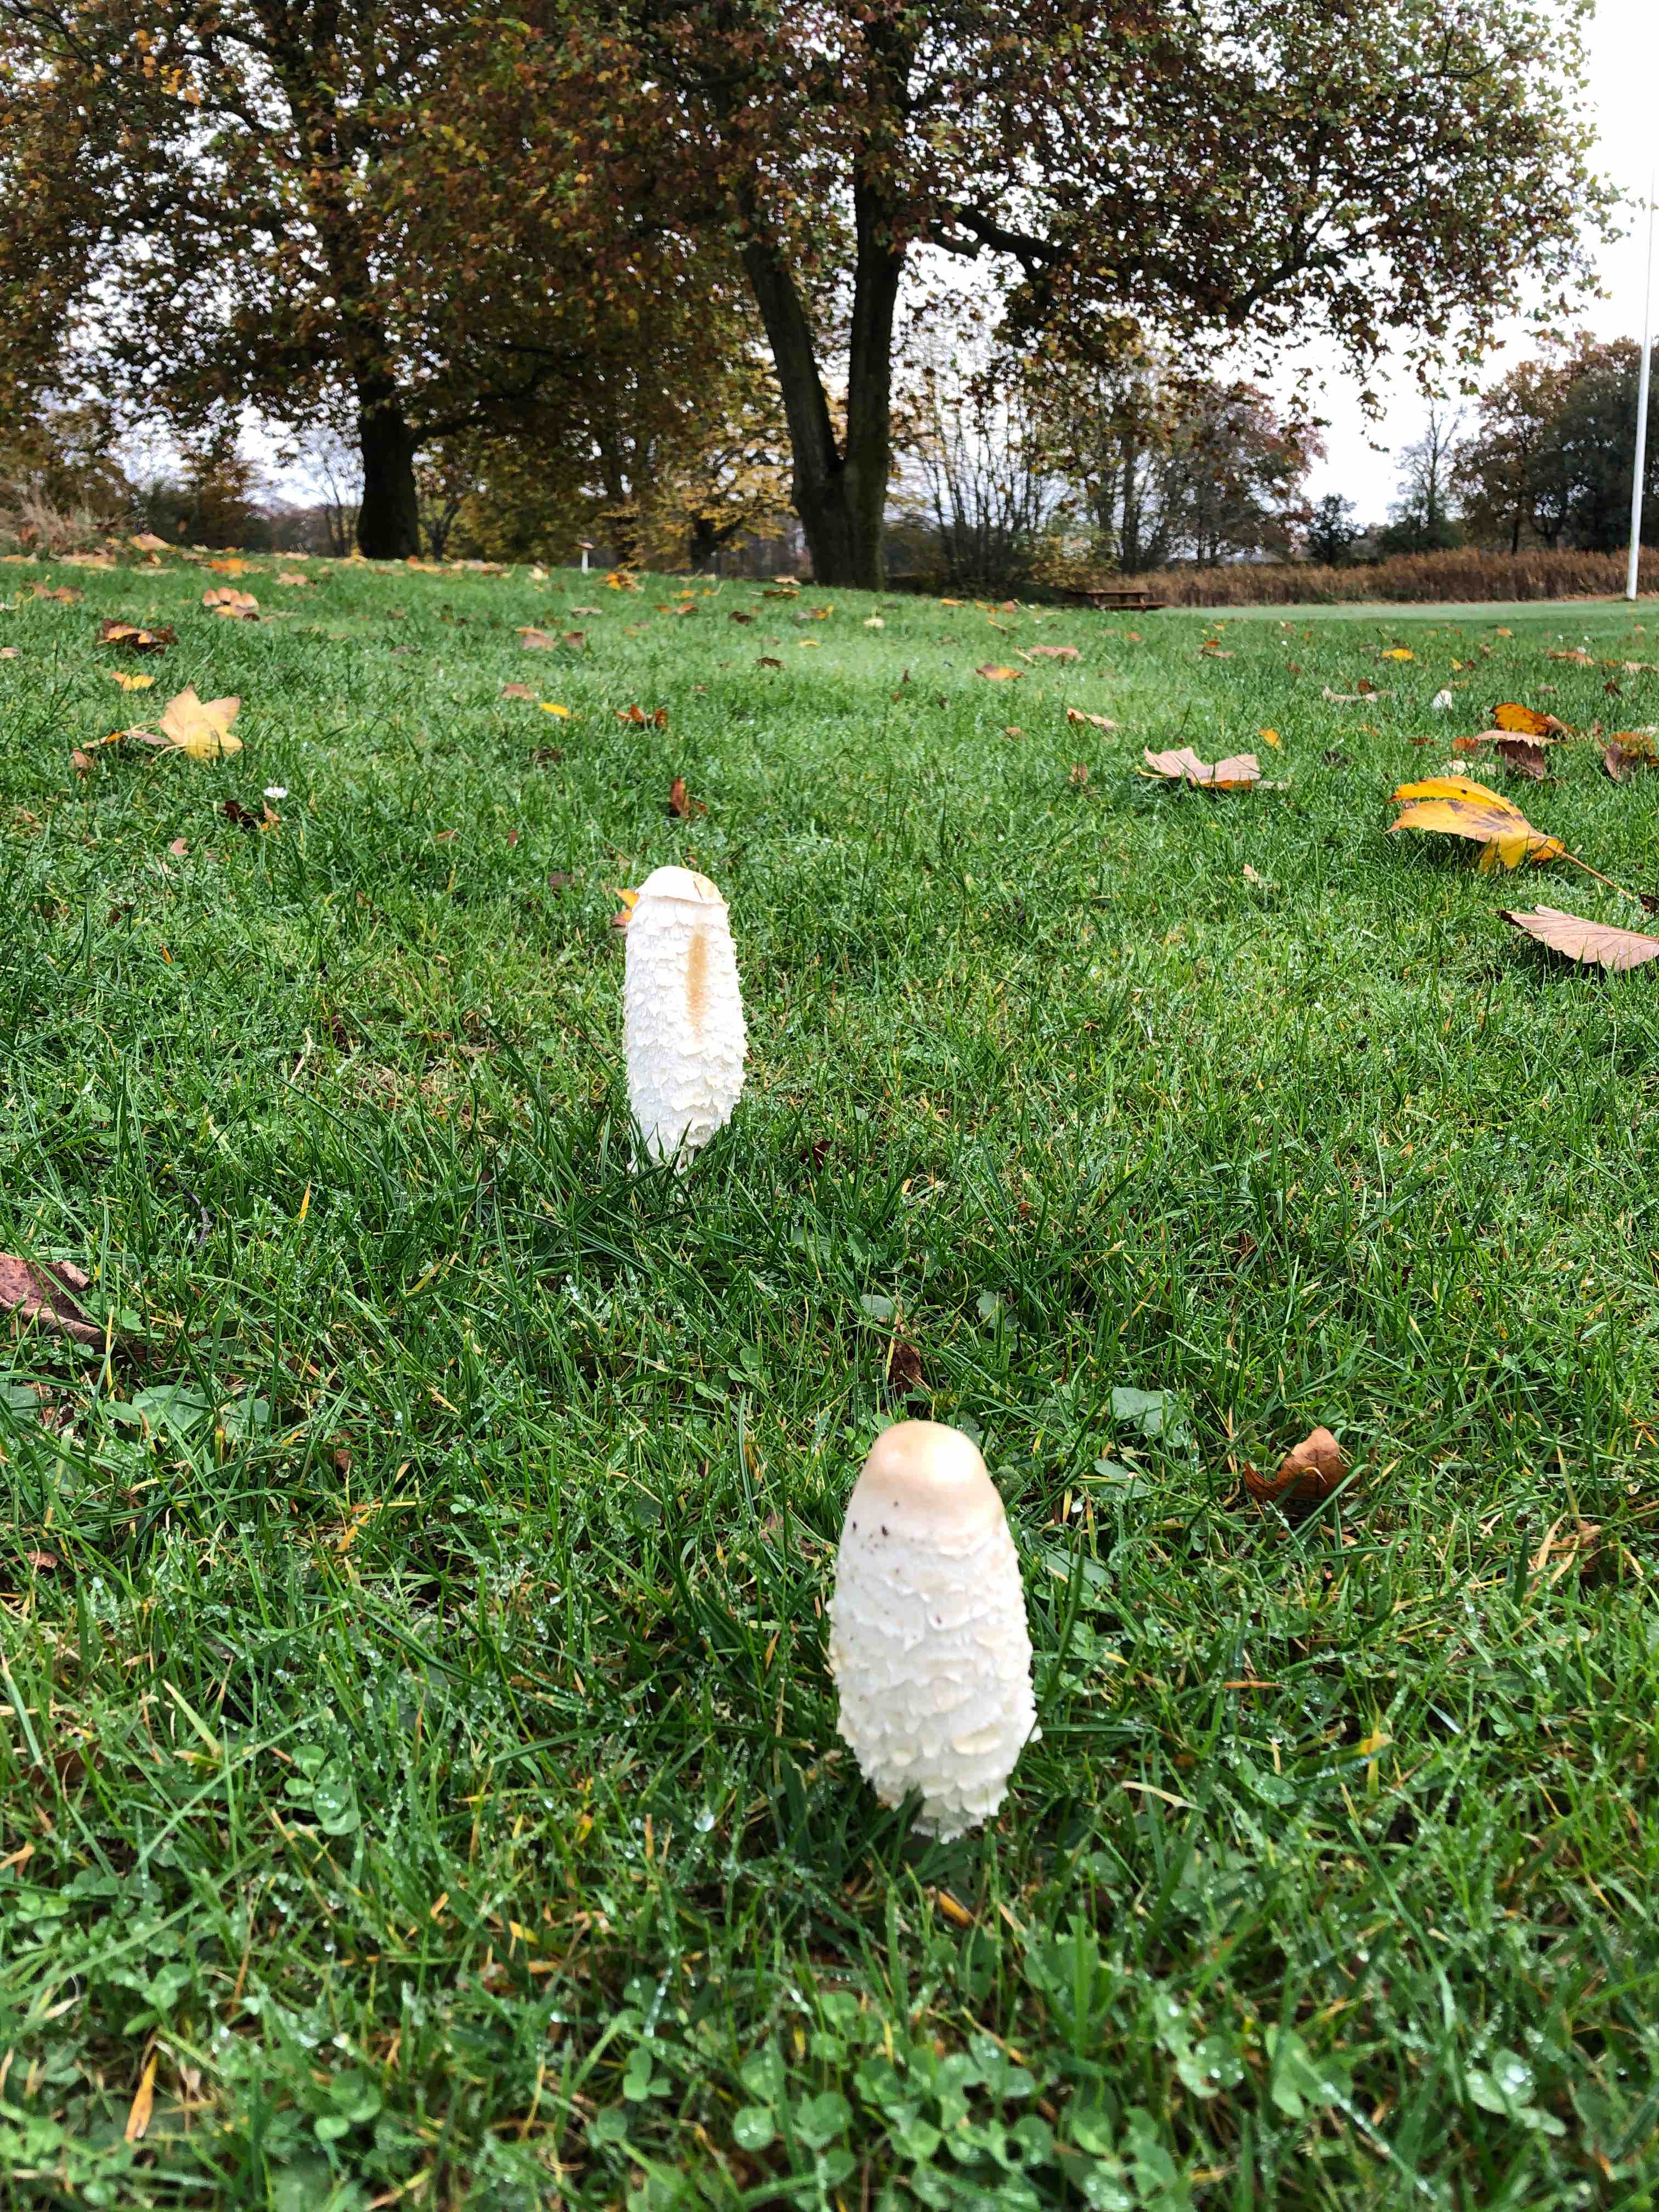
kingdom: Fungi
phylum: Basidiomycota
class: Agaricomycetes
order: Agaricales
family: Agaricaceae
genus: Coprinus
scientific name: Coprinus comatus
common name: stor parykhat
